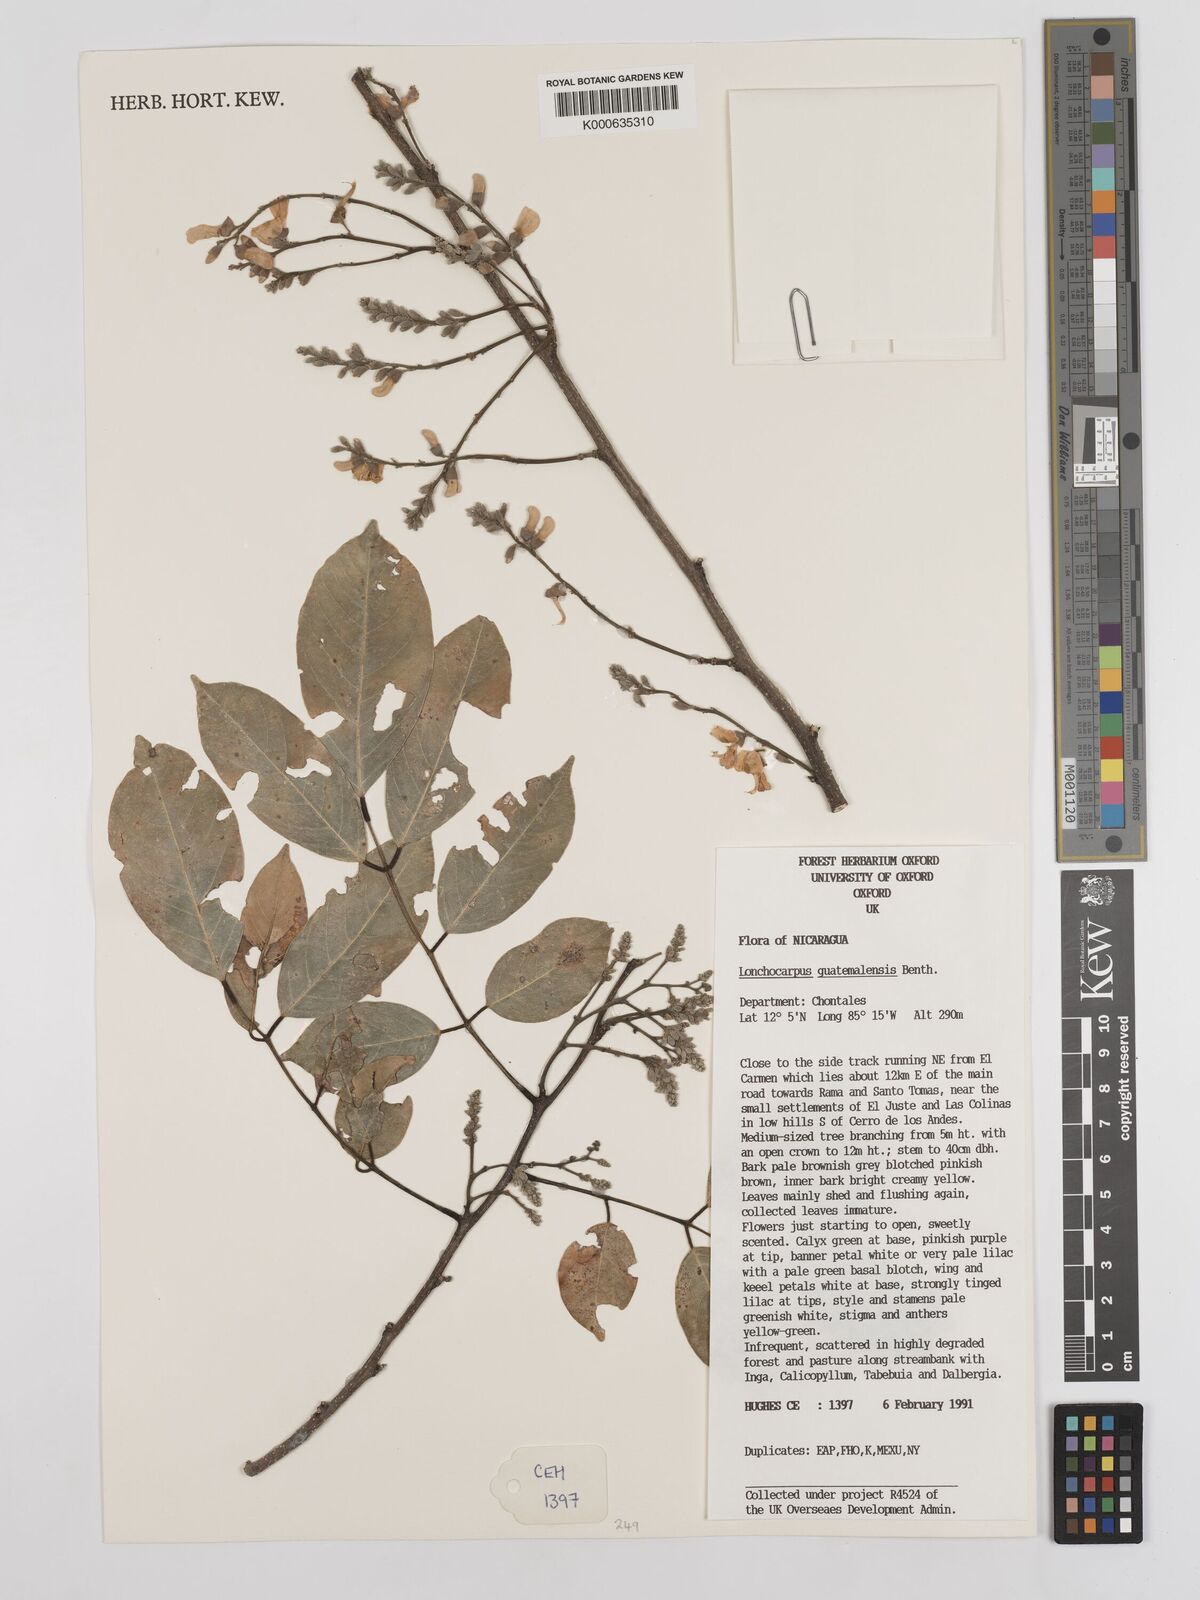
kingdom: Plantae
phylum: Tracheophyta
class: Magnoliopsida
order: Fabales
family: Fabaceae
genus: Lonchocarpus
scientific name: Lonchocarpus guatemalensis
